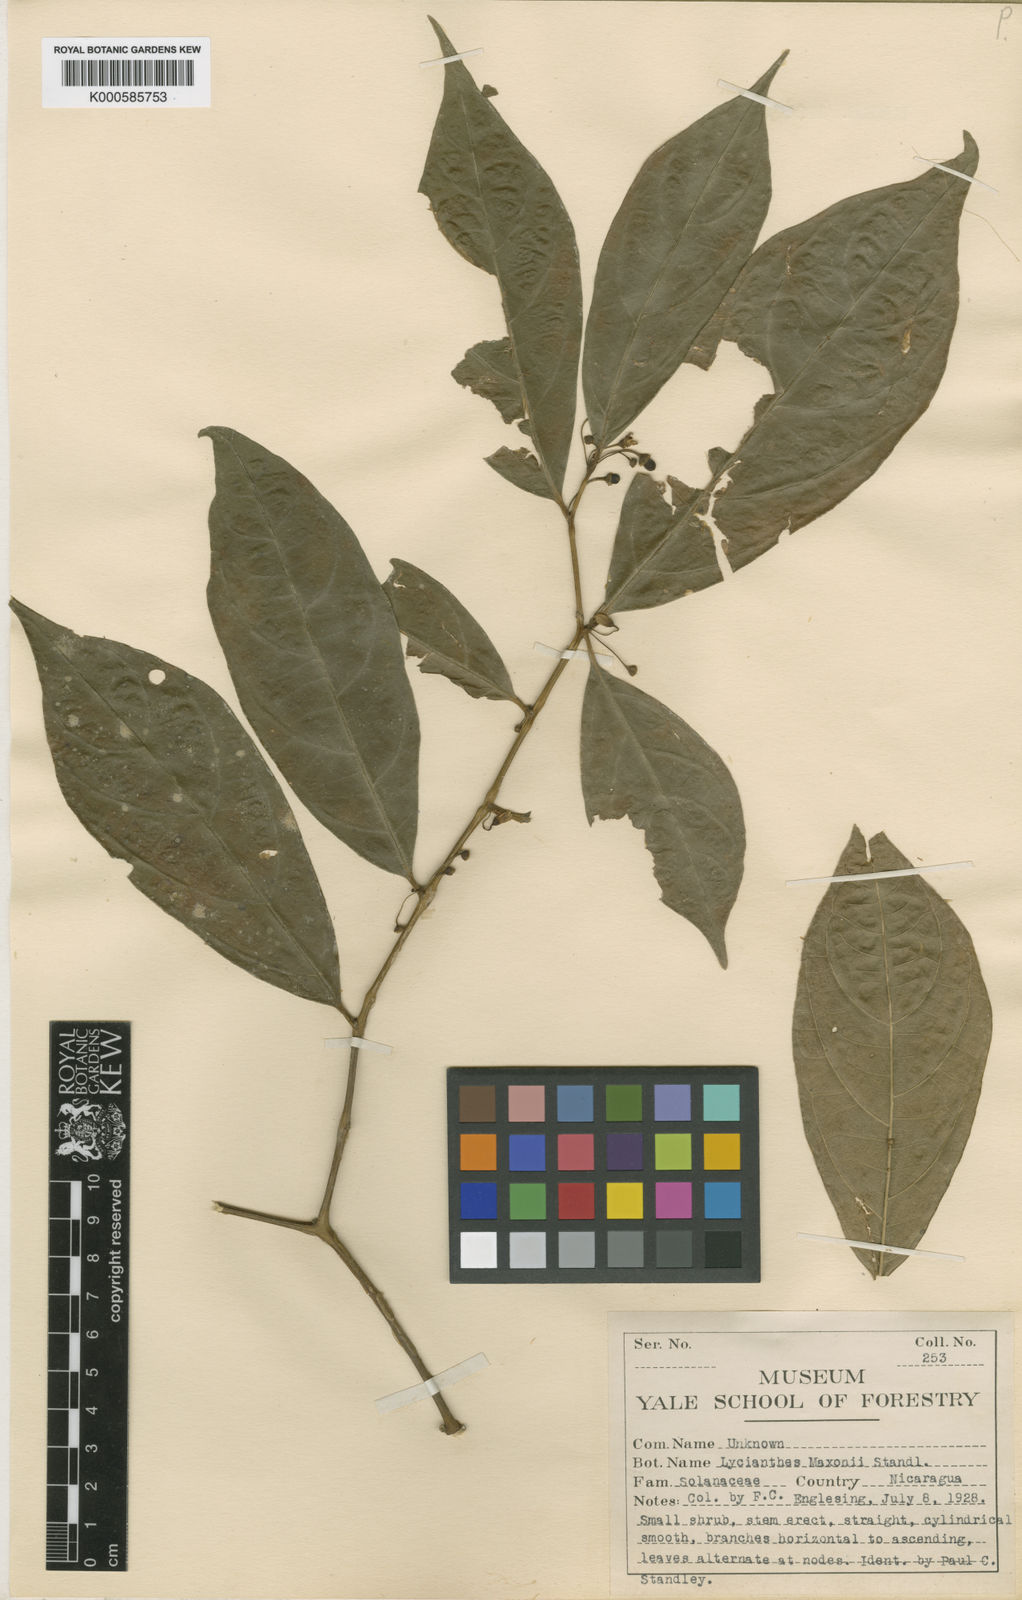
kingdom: Plantae
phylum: Tracheophyta
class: Magnoliopsida
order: Solanales
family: Solanaceae
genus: Lycianthes
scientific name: Lycianthes maxonii
